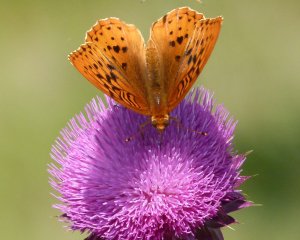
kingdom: Animalia
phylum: Arthropoda
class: Insecta
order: Lepidoptera
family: Nymphalidae
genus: Speyeria
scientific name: Speyeria cybele
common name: Great Spangled Fritillary
